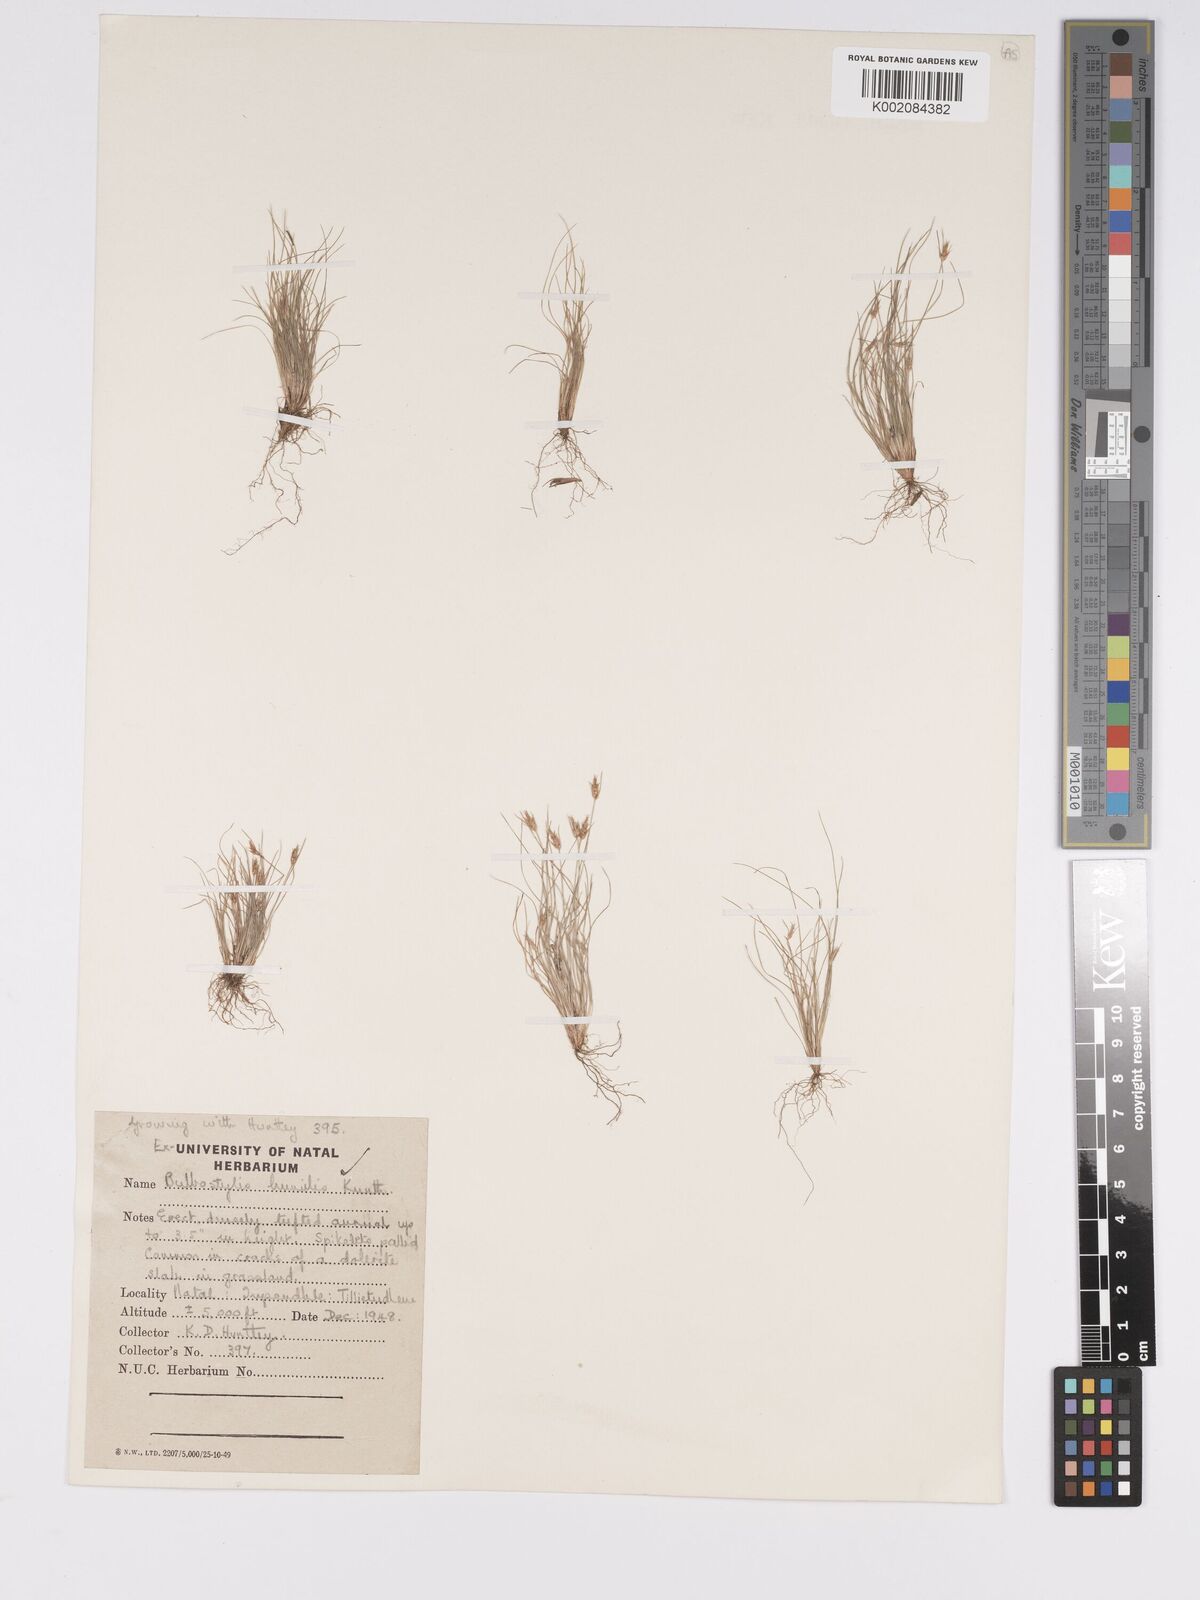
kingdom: Plantae
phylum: Tracheophyta
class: Liliopsida
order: Poales
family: Cyperaceae
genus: Bulbostylis
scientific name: Bulbostylis humilis
